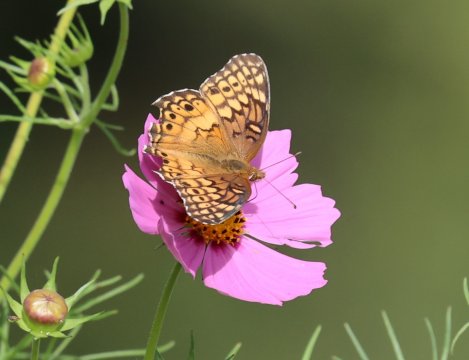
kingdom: Animalia
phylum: Arthropoda
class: Insecta
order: Lepidoptera
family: Nymphalidae
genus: Euptoieta
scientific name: Euptoieta claudia
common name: Variegated Fritillary
